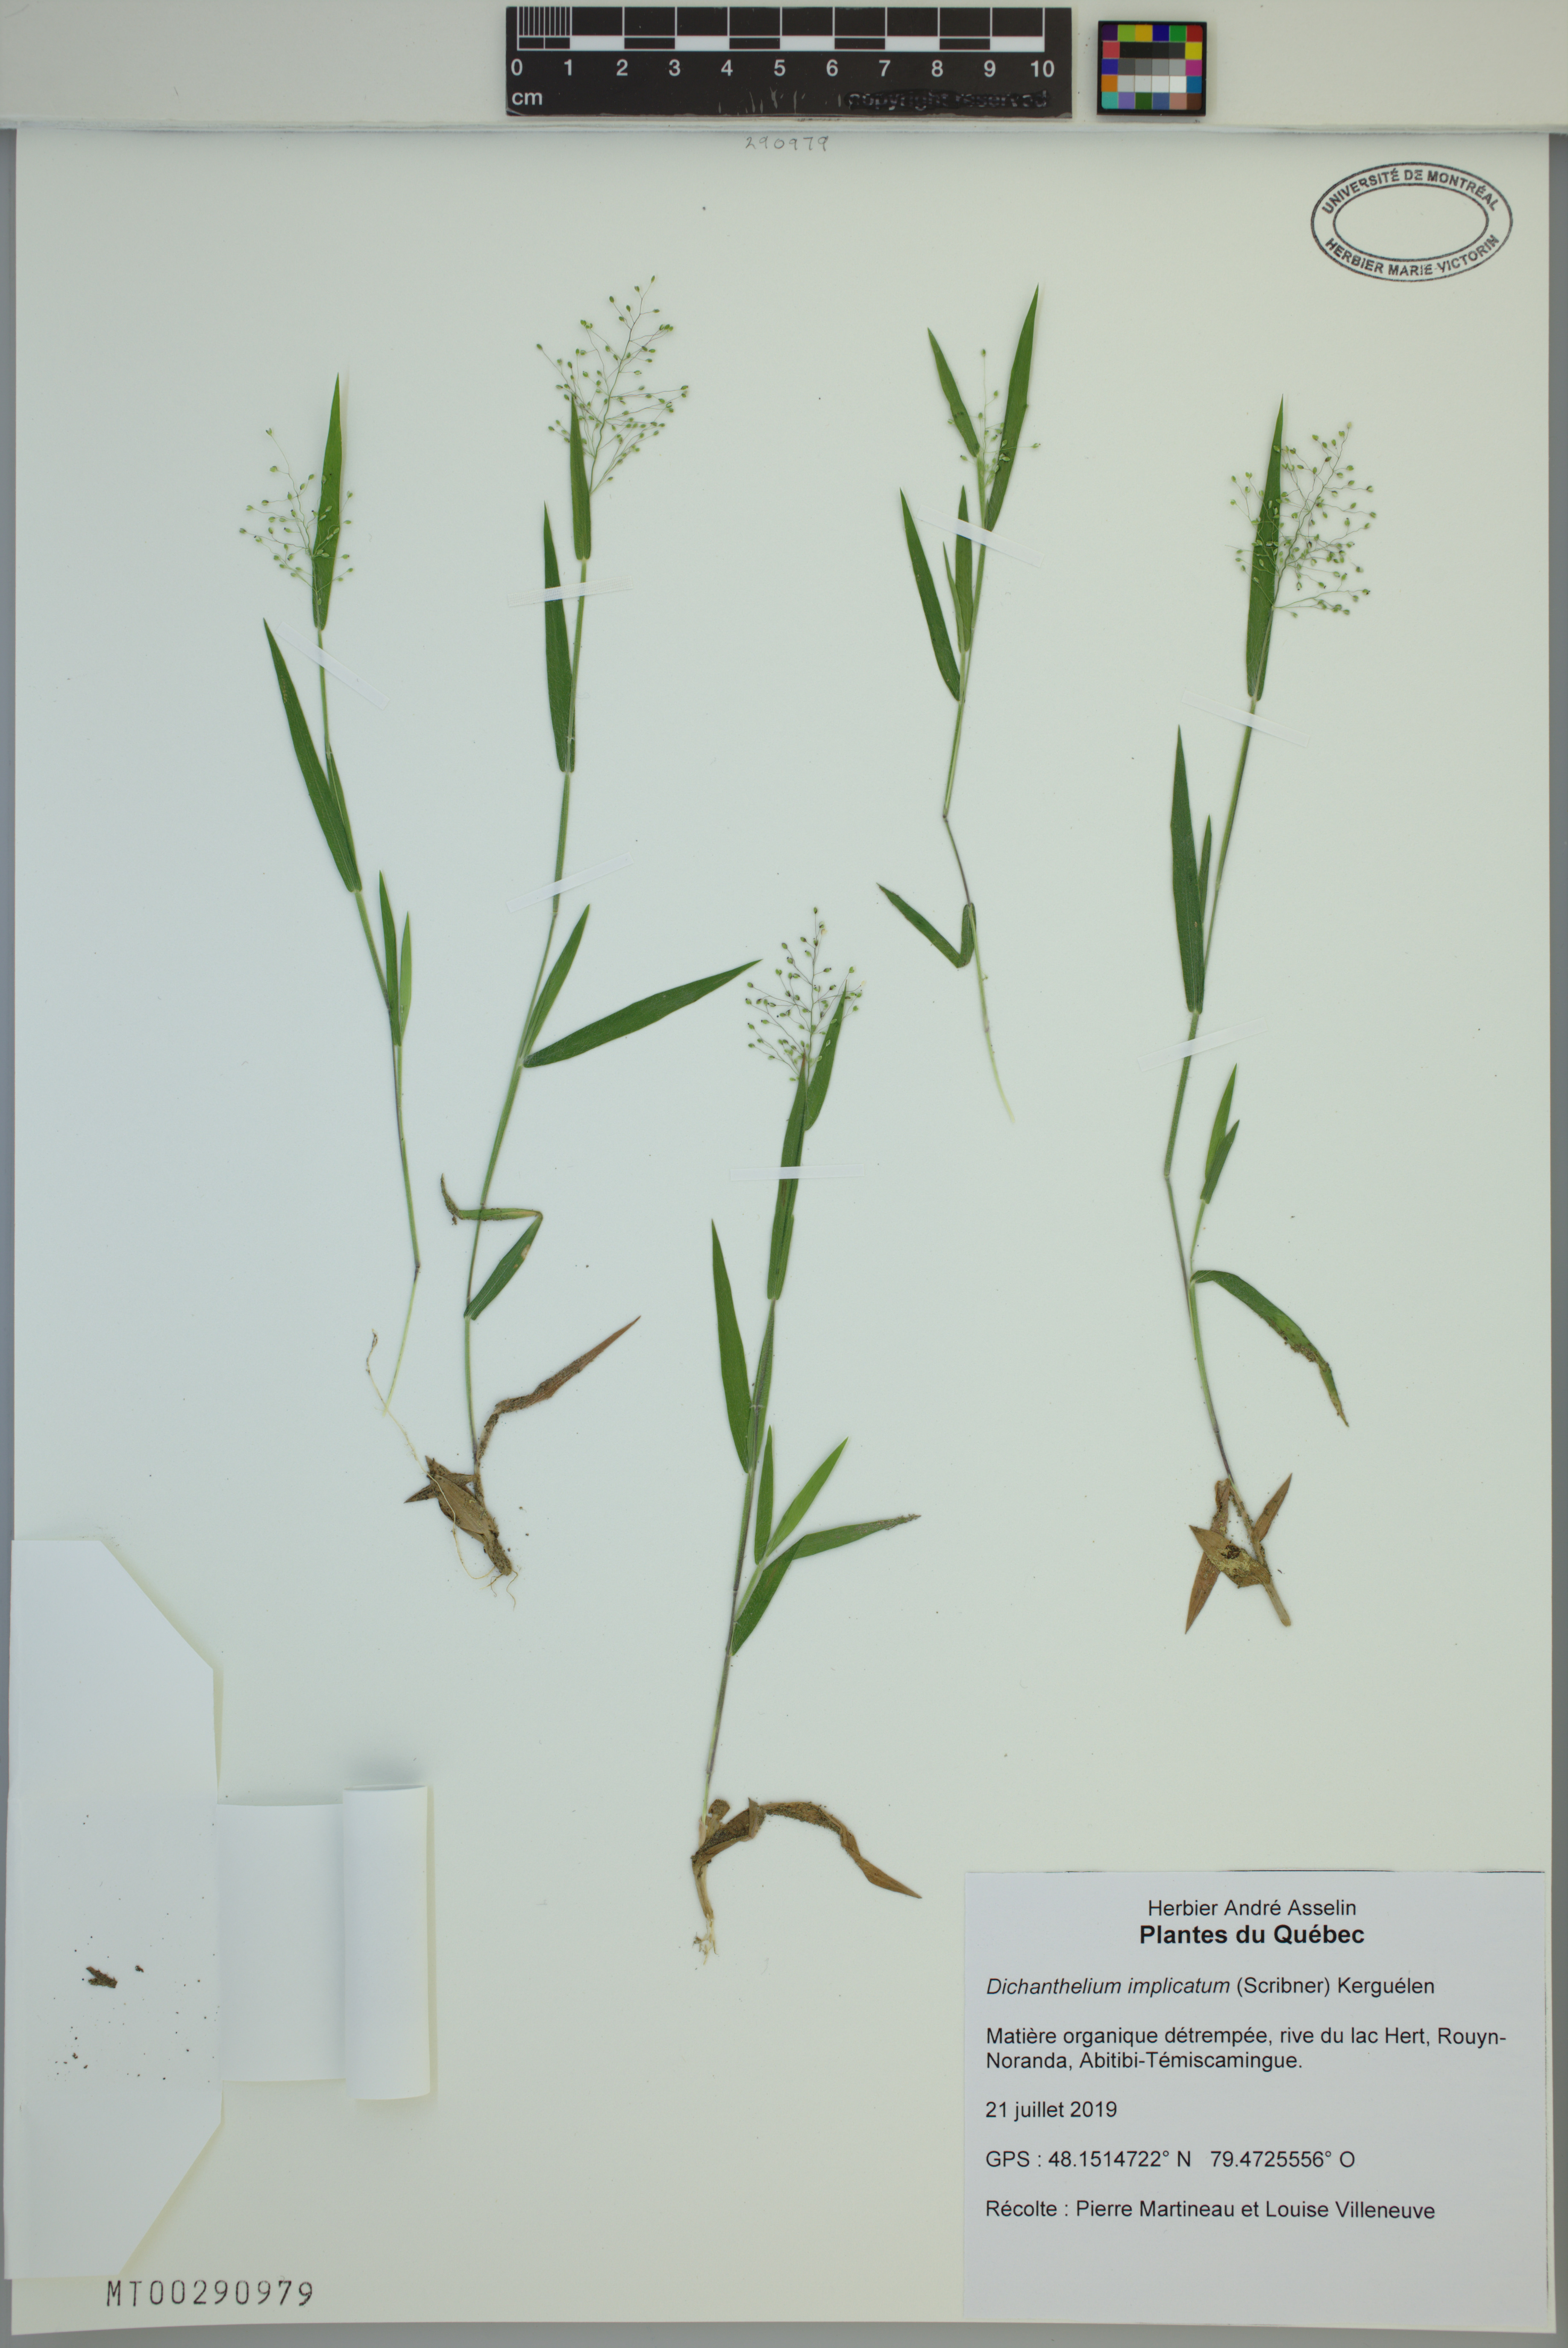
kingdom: Plantae
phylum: Tracheophyta
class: Liliopsida
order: Poales
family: Poaceae
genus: Dichanthelium
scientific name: Dichanthelium implicatum
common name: Slender-stemmed panicgrass
